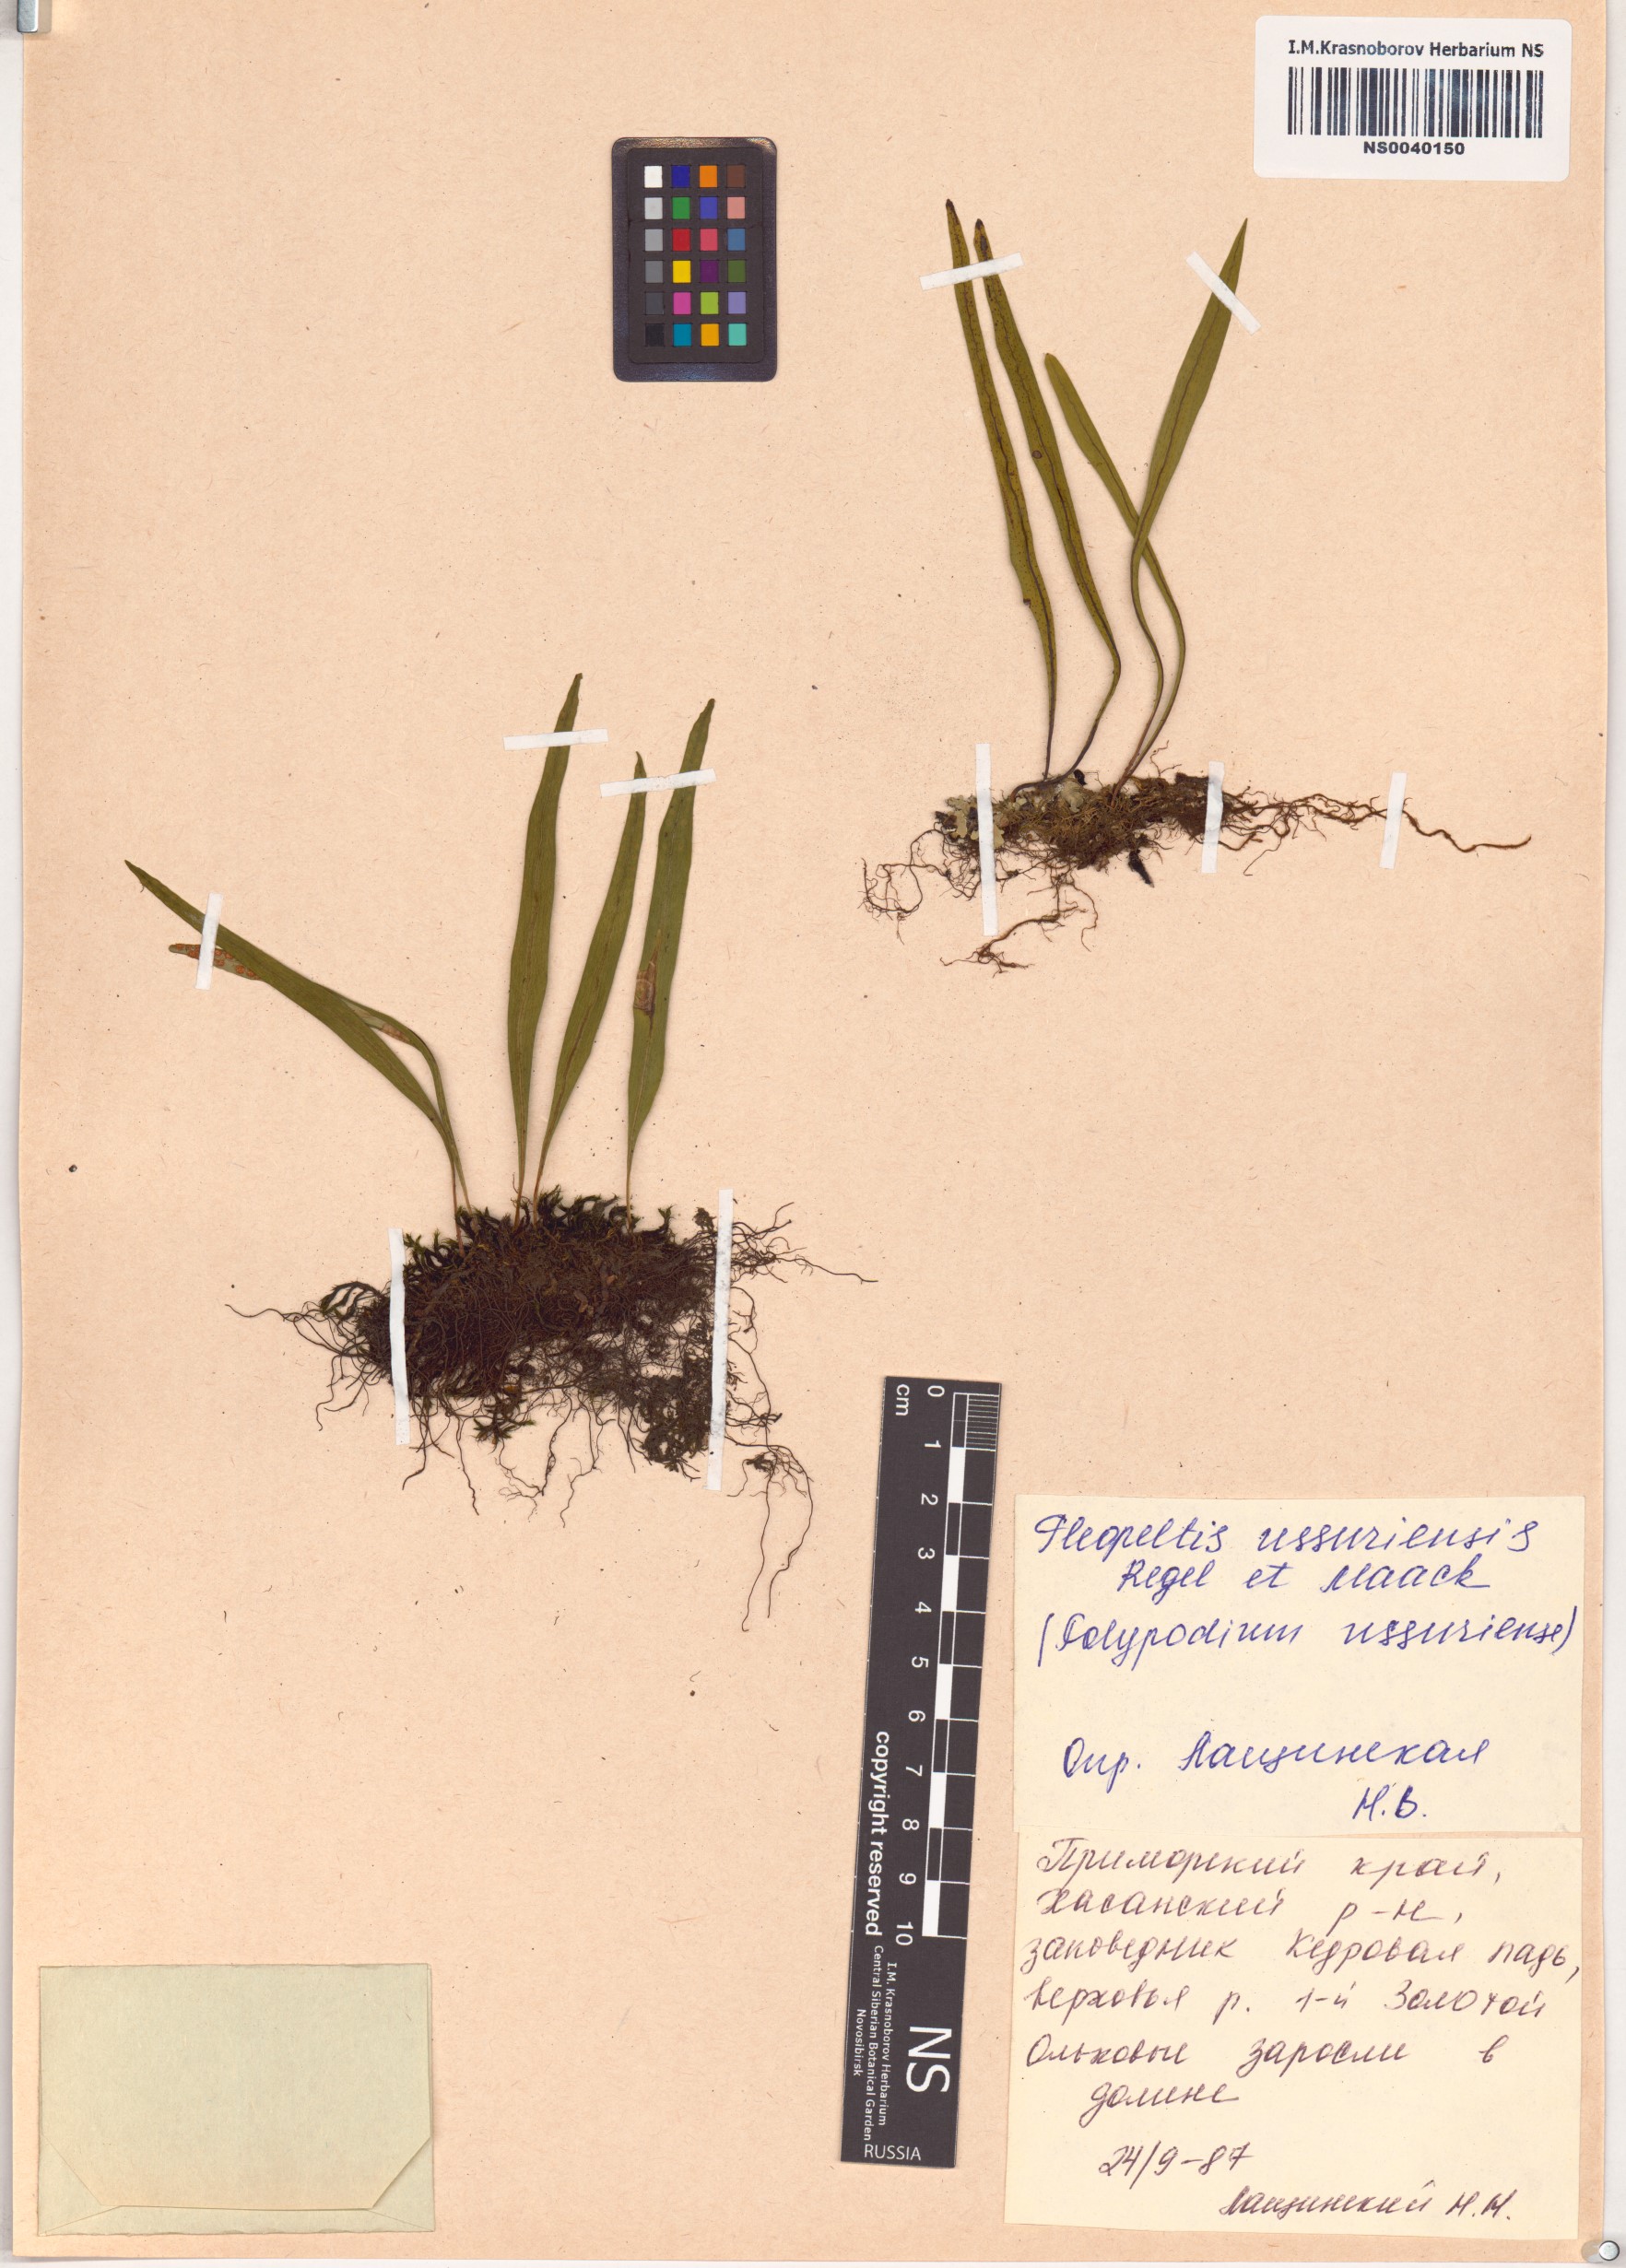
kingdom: Plantae
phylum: Tracheophyta
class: Polypodiopsida
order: Polypodiales
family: Polypodiaceae
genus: Lepisorus
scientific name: Lepisorus ussuriensis
